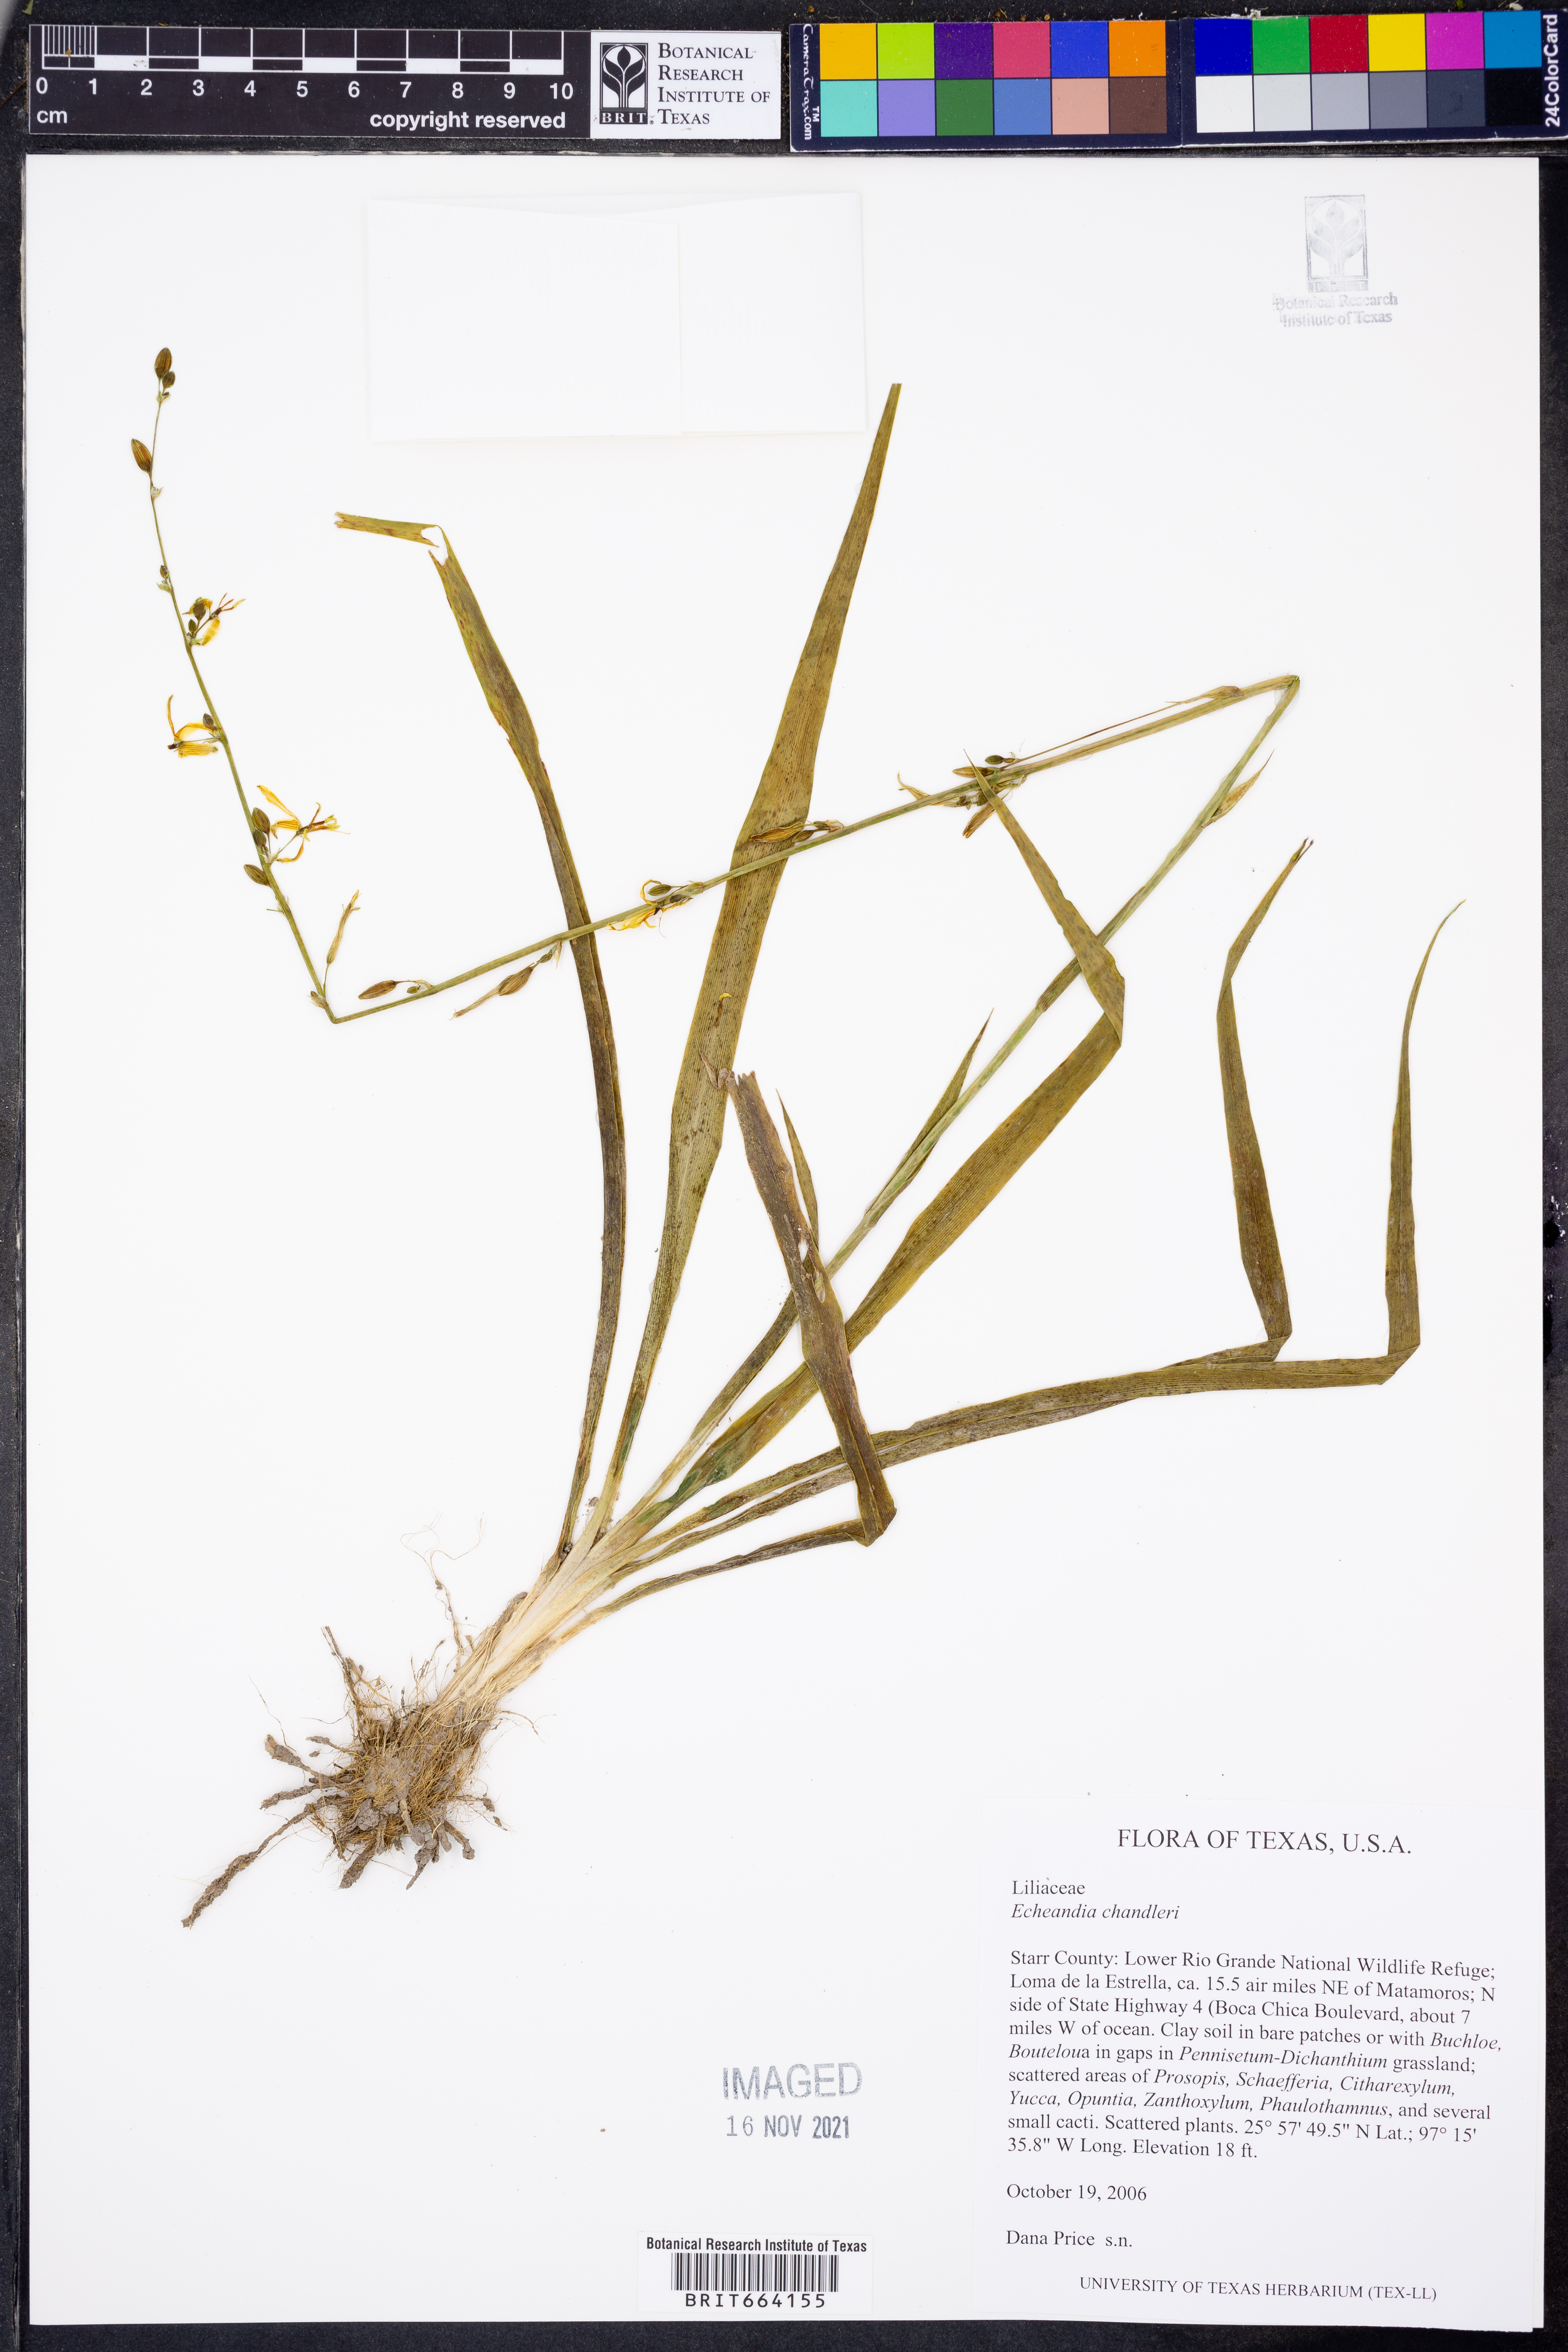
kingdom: Plantae
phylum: Tracheophyta
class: Liliopsida
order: Asparagales
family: Asparagaceae
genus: Echeandia
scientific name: Echeandia chandleri
